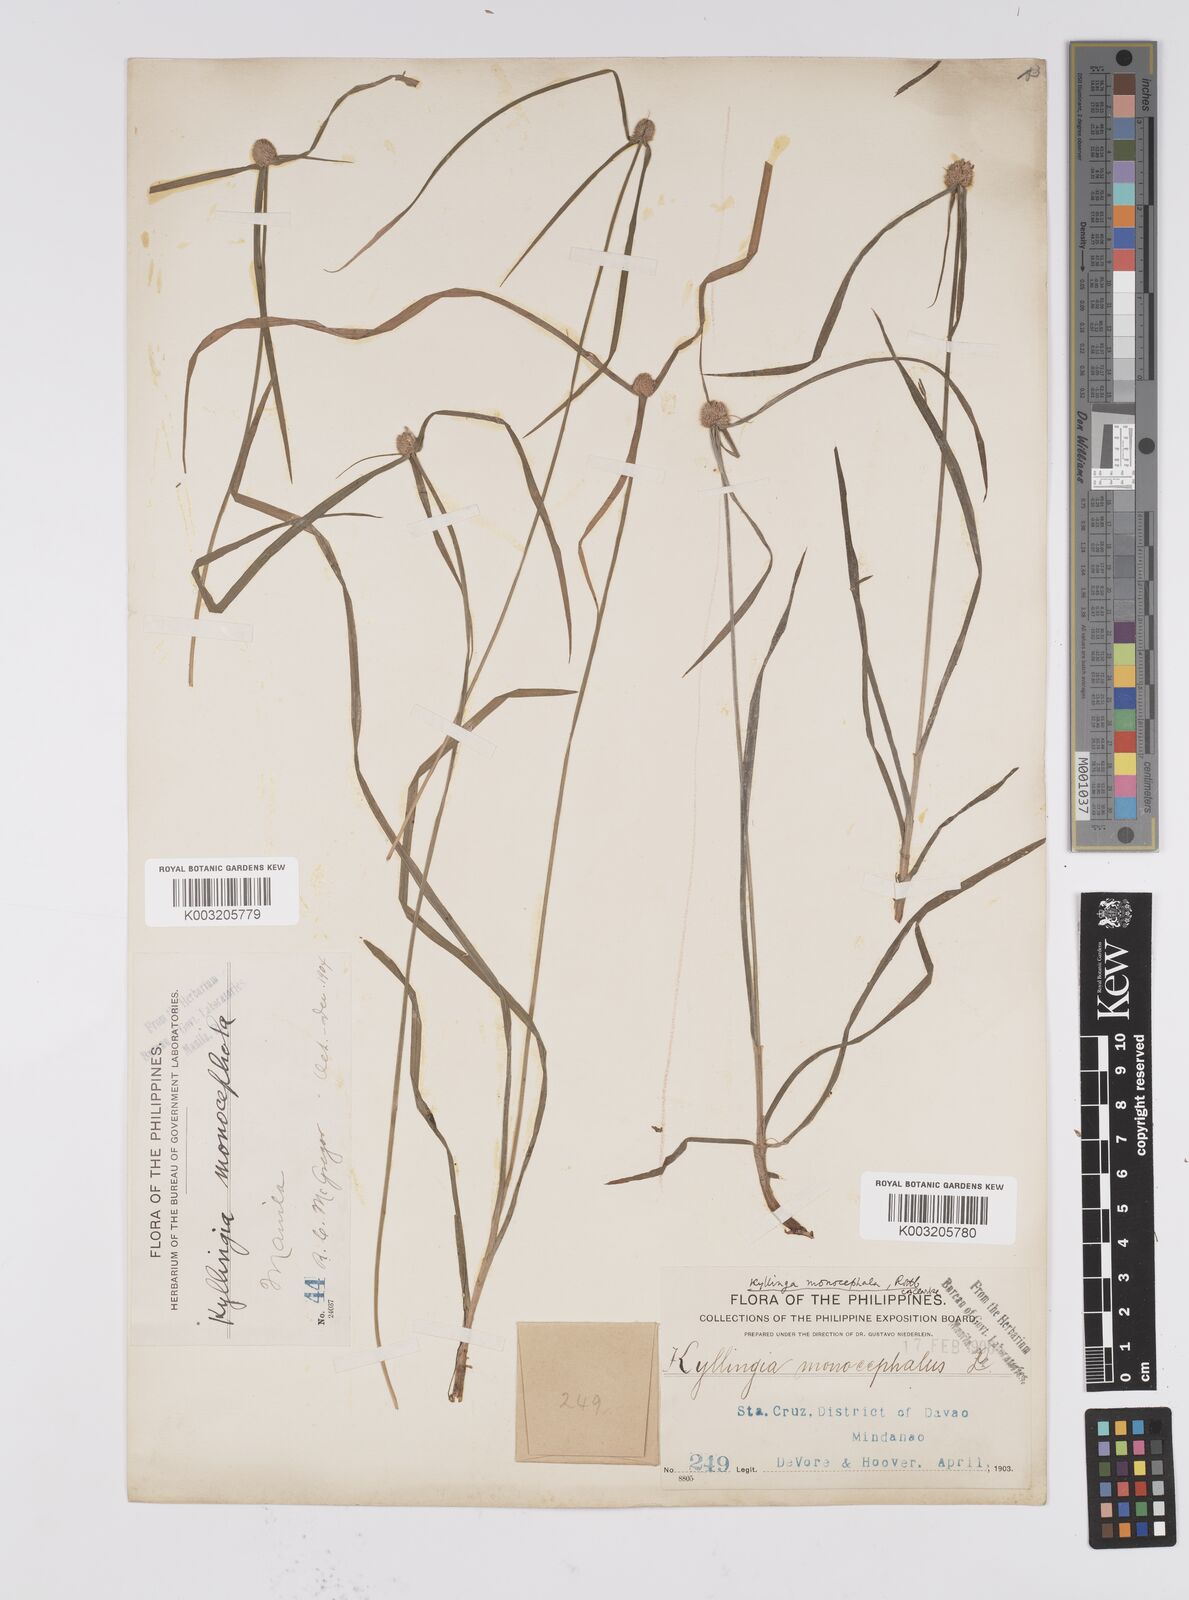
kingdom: Plantae
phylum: Tracheophyta
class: Liliopsida
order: Poales
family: Cyperaceae
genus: Cyperus
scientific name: Cyperus nemoralis
